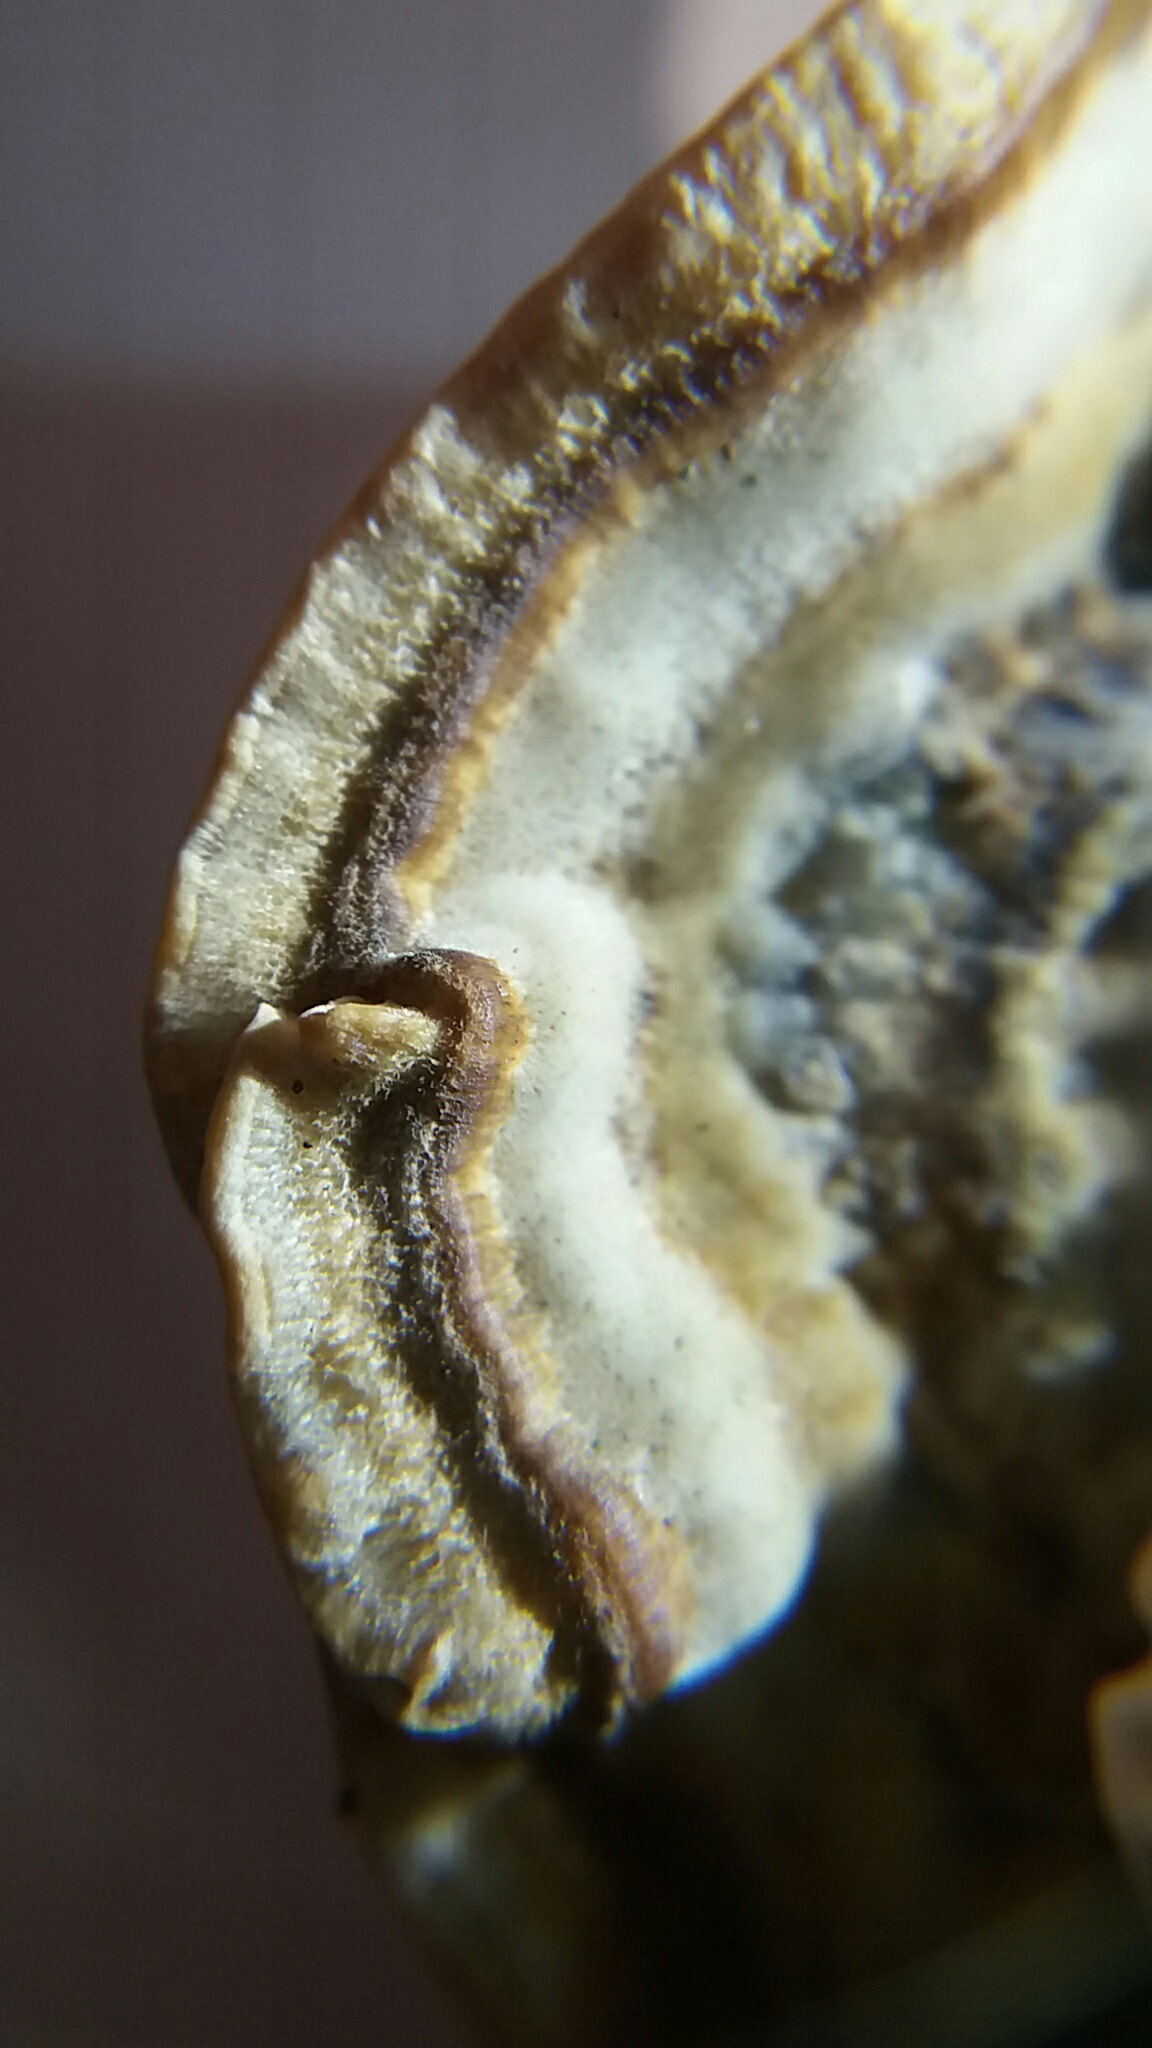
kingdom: Fungi
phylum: Basidiomycota
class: Agaricomycetes
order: Polyporales
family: Polyporaceae
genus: Trametes
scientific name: Trametes
